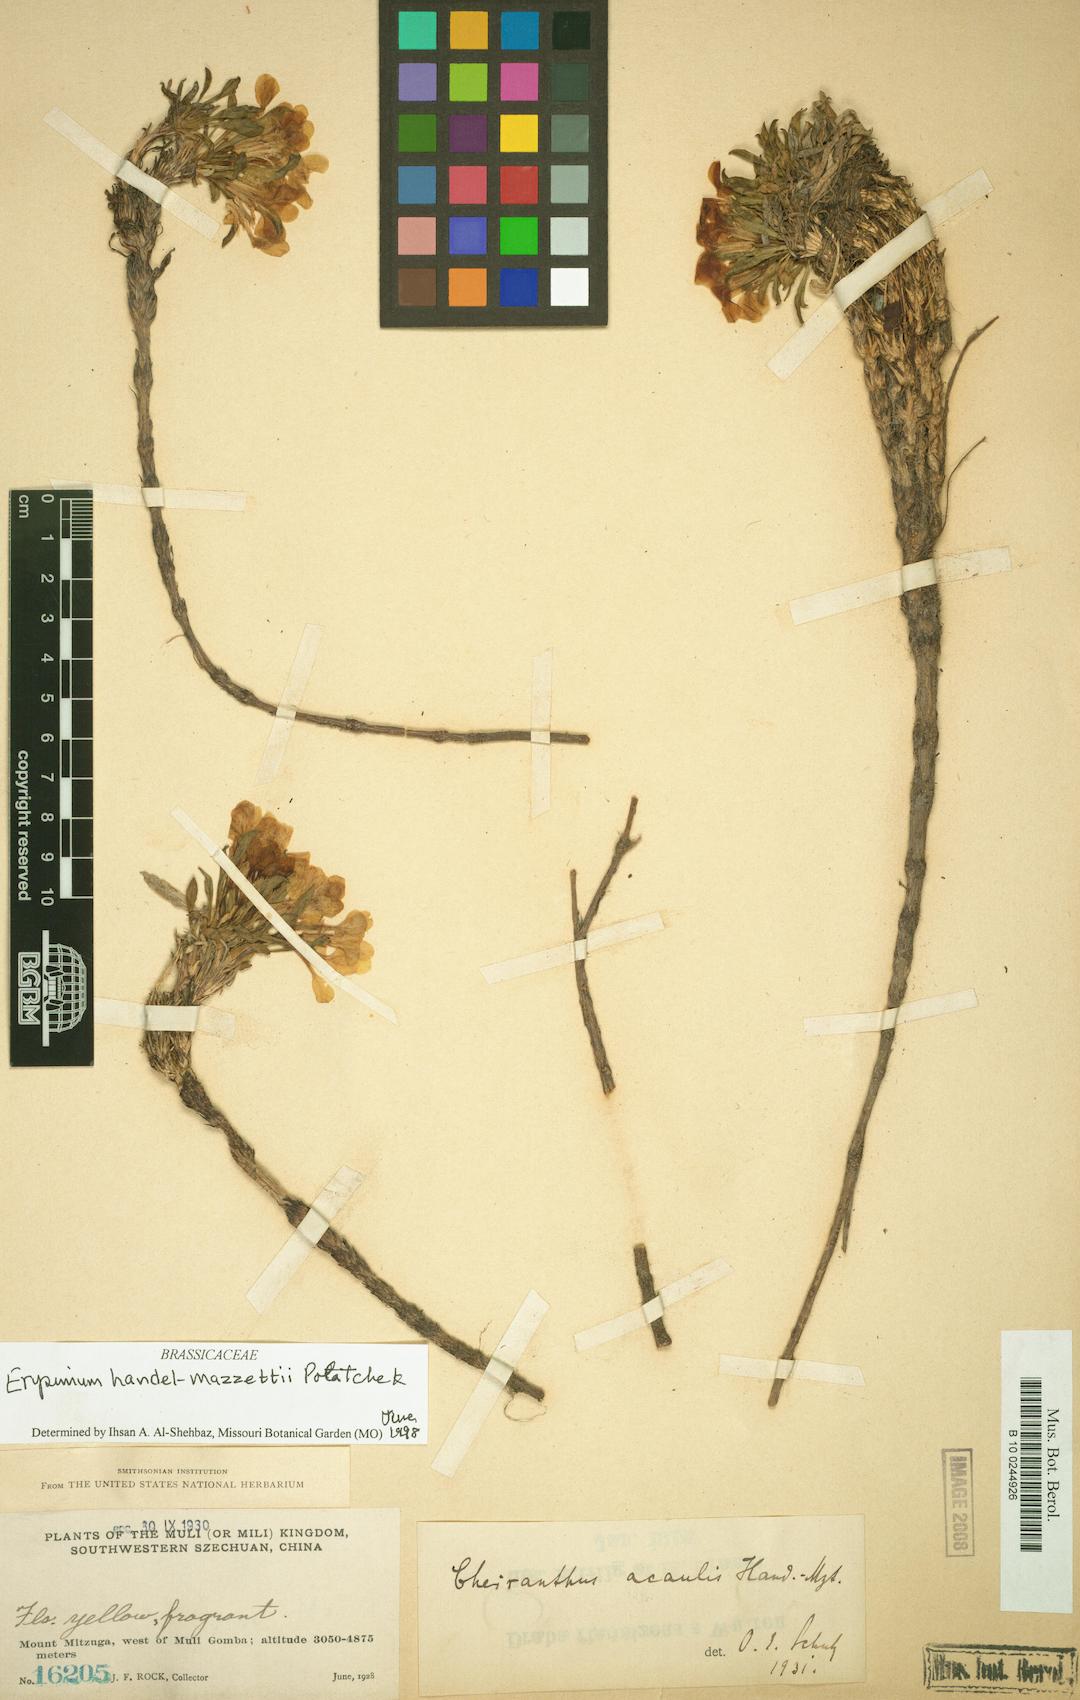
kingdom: Plantae
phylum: Tracheophyta
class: Magnoliopsida
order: Brassicales
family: Brassicaceae
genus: Erysimum
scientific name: Erysimum handel-mazzettii
